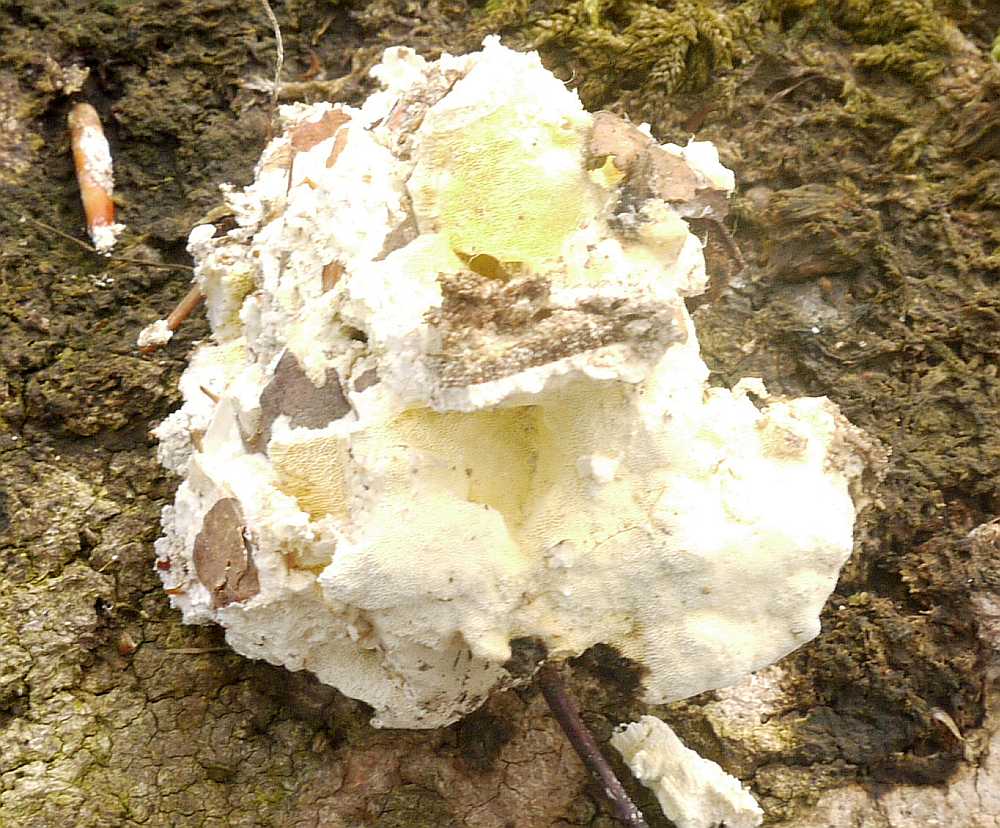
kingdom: Fungi
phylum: Basidiomycota
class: Agaricomycetes
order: Polyporales
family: Fomitopsidaceae
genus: Daedalea
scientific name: Daedalea xantha
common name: gul sejporesvamp
